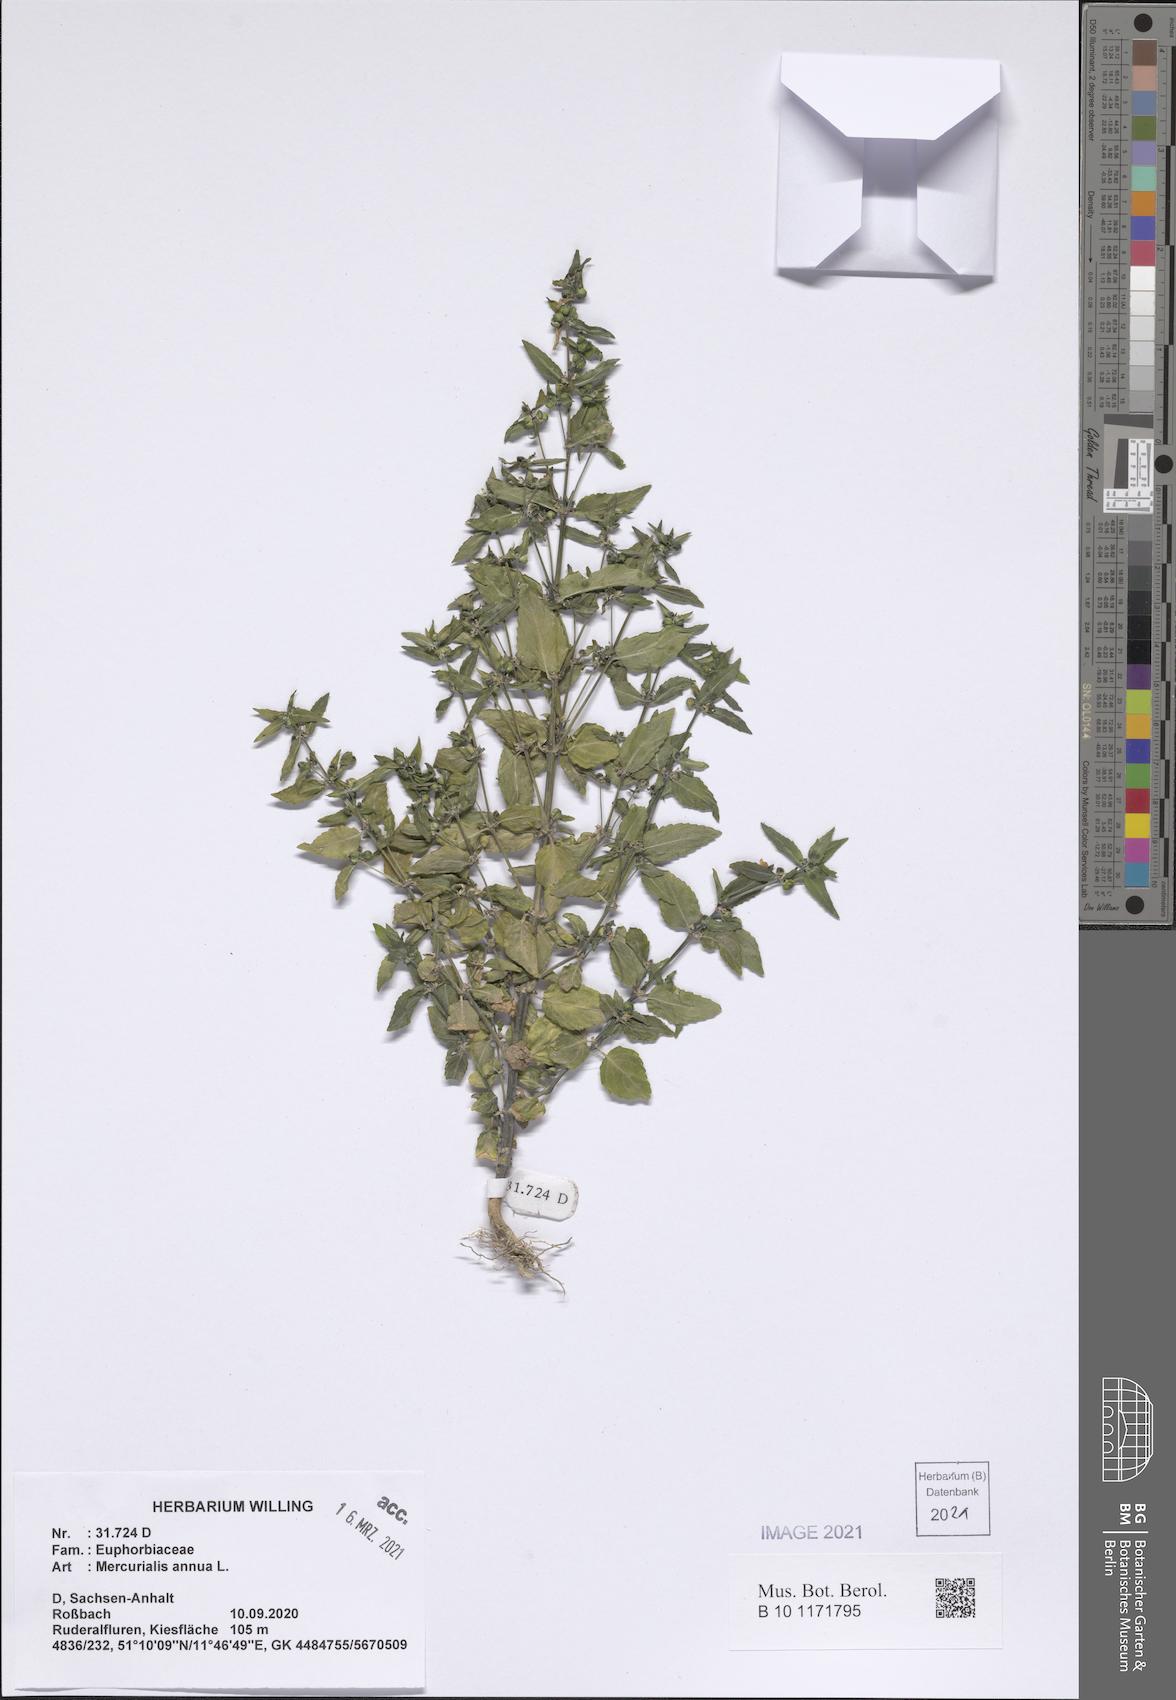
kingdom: Plantae
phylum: Tracheophyta
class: Magnoliopsida
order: Malpighiales
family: Euphorbiaceae
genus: Mercurialis
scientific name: Mercurialis annua
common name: Annual mercury
